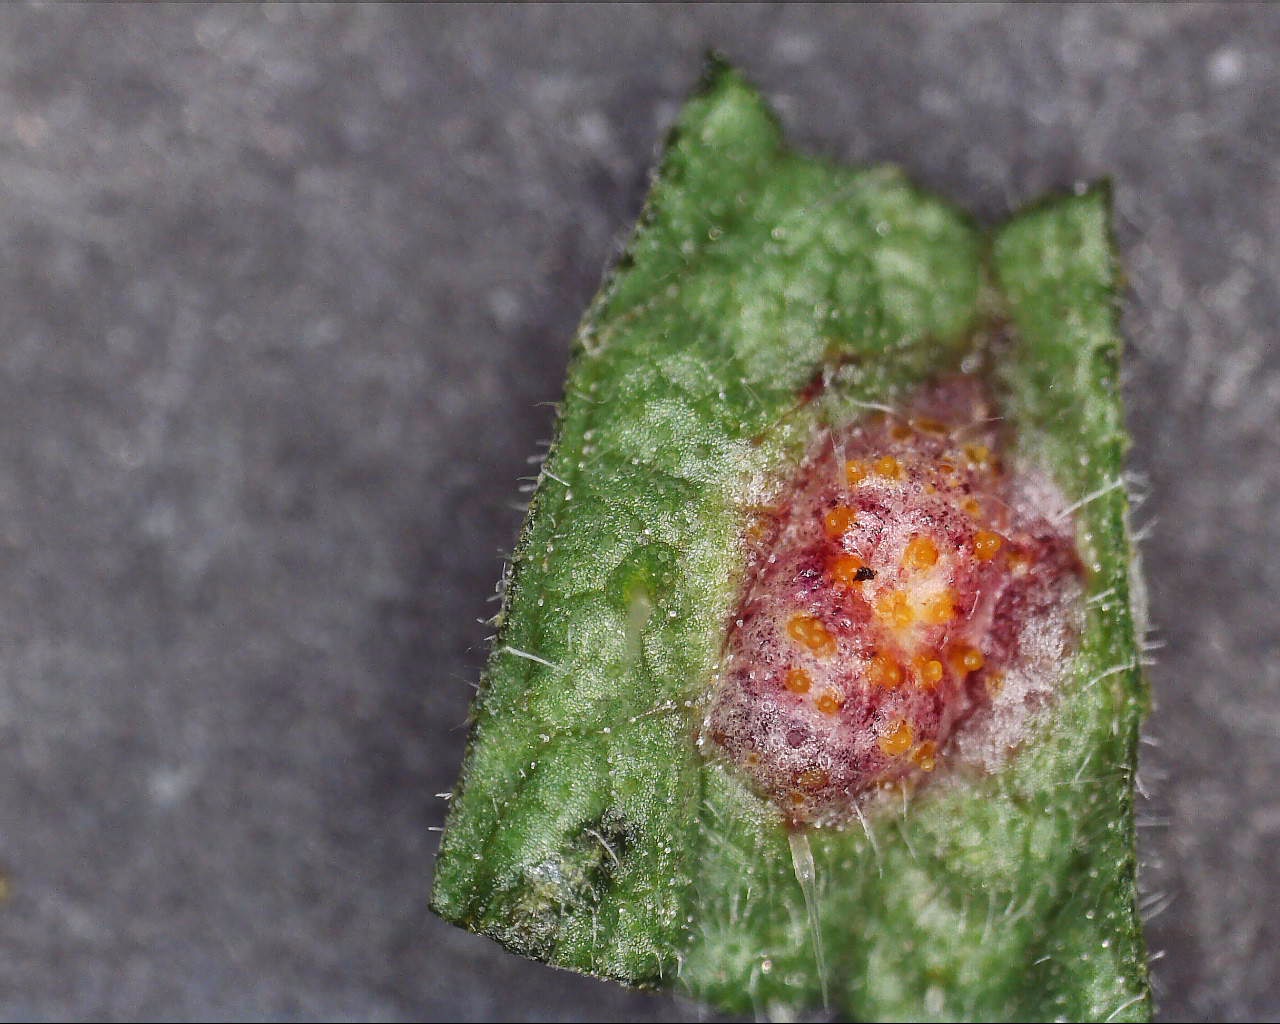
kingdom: Fungi
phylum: Basidiomycota
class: Pucciniomycetes
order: Pucciniales
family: Pucciniaceae
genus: Puccinia
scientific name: Puccinia urticata
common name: nældegalle-tvecellerust
